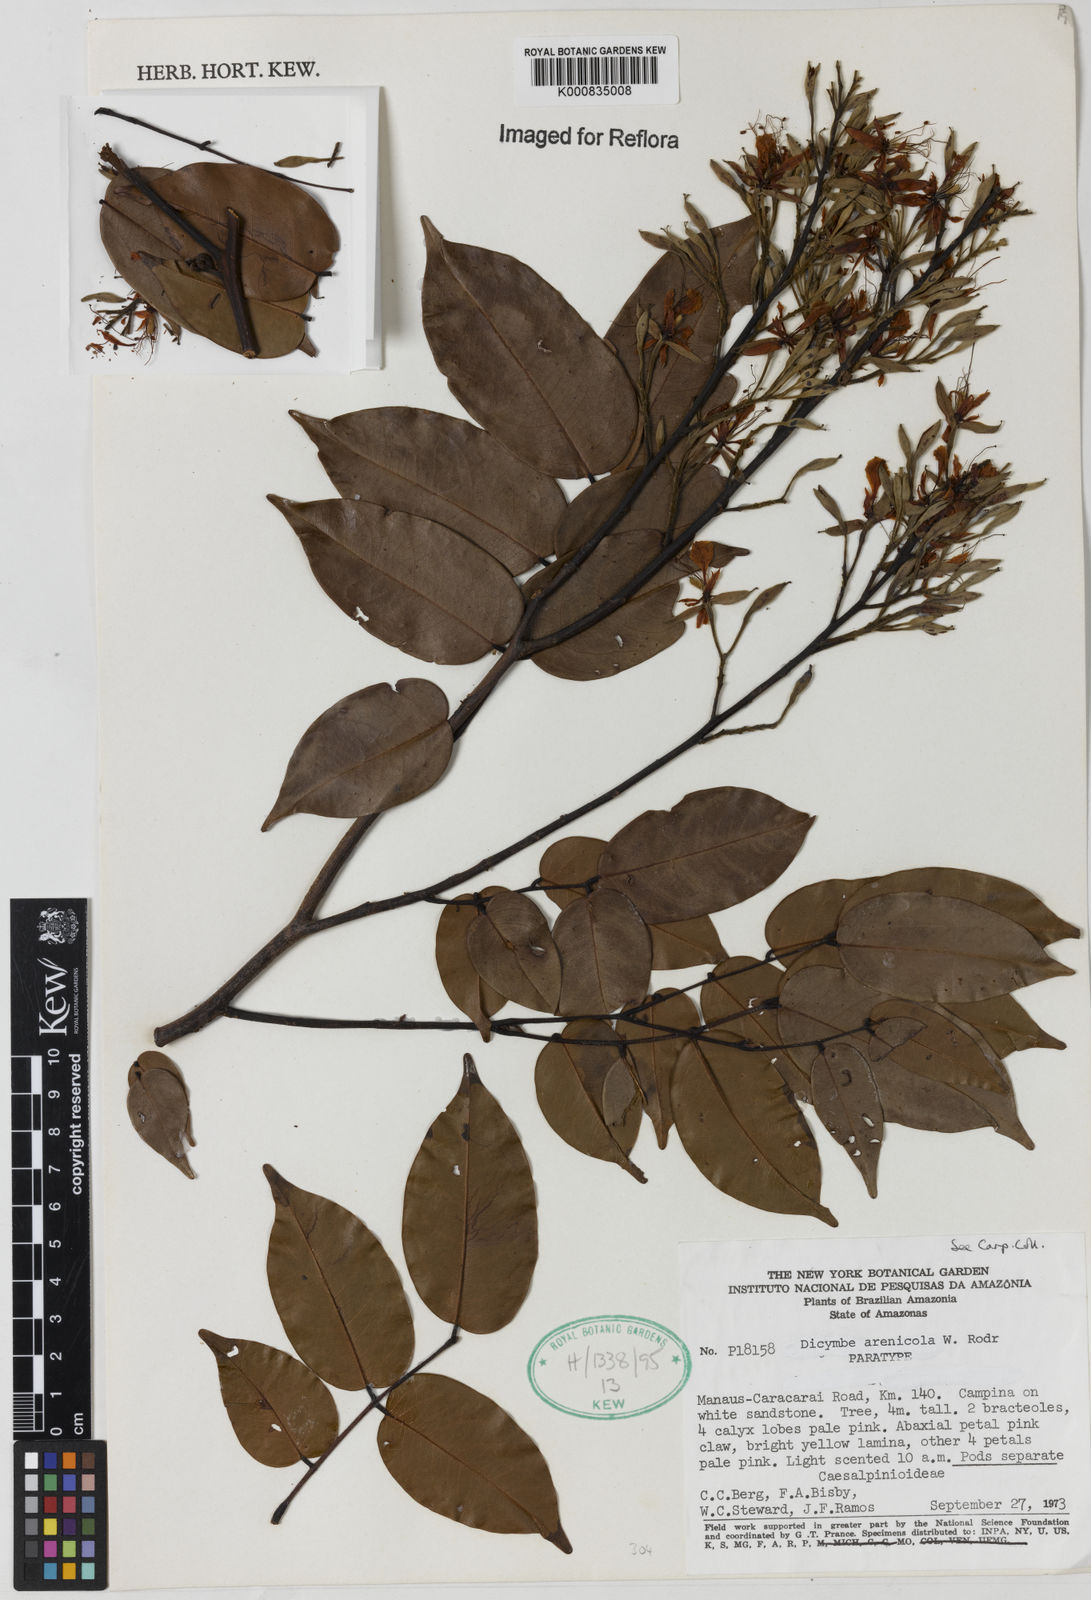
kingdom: Plantae
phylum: Tracheophyta
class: Magnoliopsida
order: Fabales
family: Fabaceae
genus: Dicymbe
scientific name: Dicymbe arenicola
